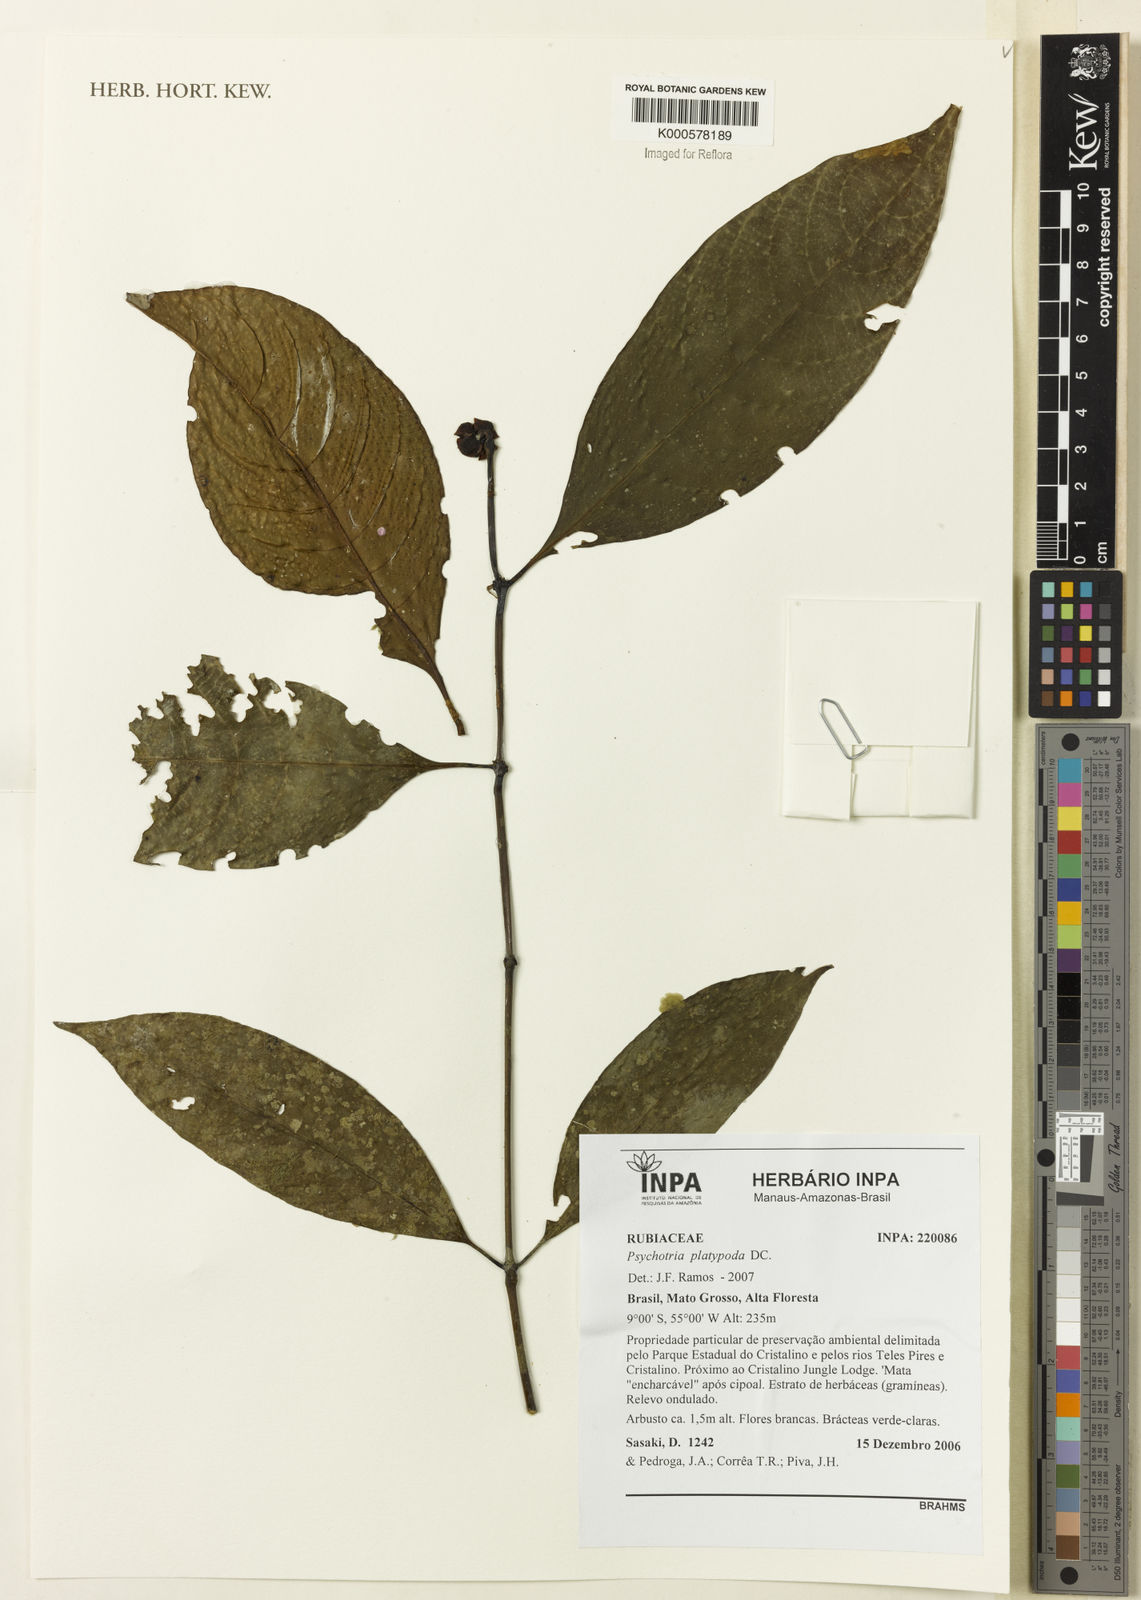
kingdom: Plantae
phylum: Tracheophyta
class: Magnoliopsida
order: Gentianales
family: Rubiaceae
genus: Palicourea
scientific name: Palicourea dichotoma
